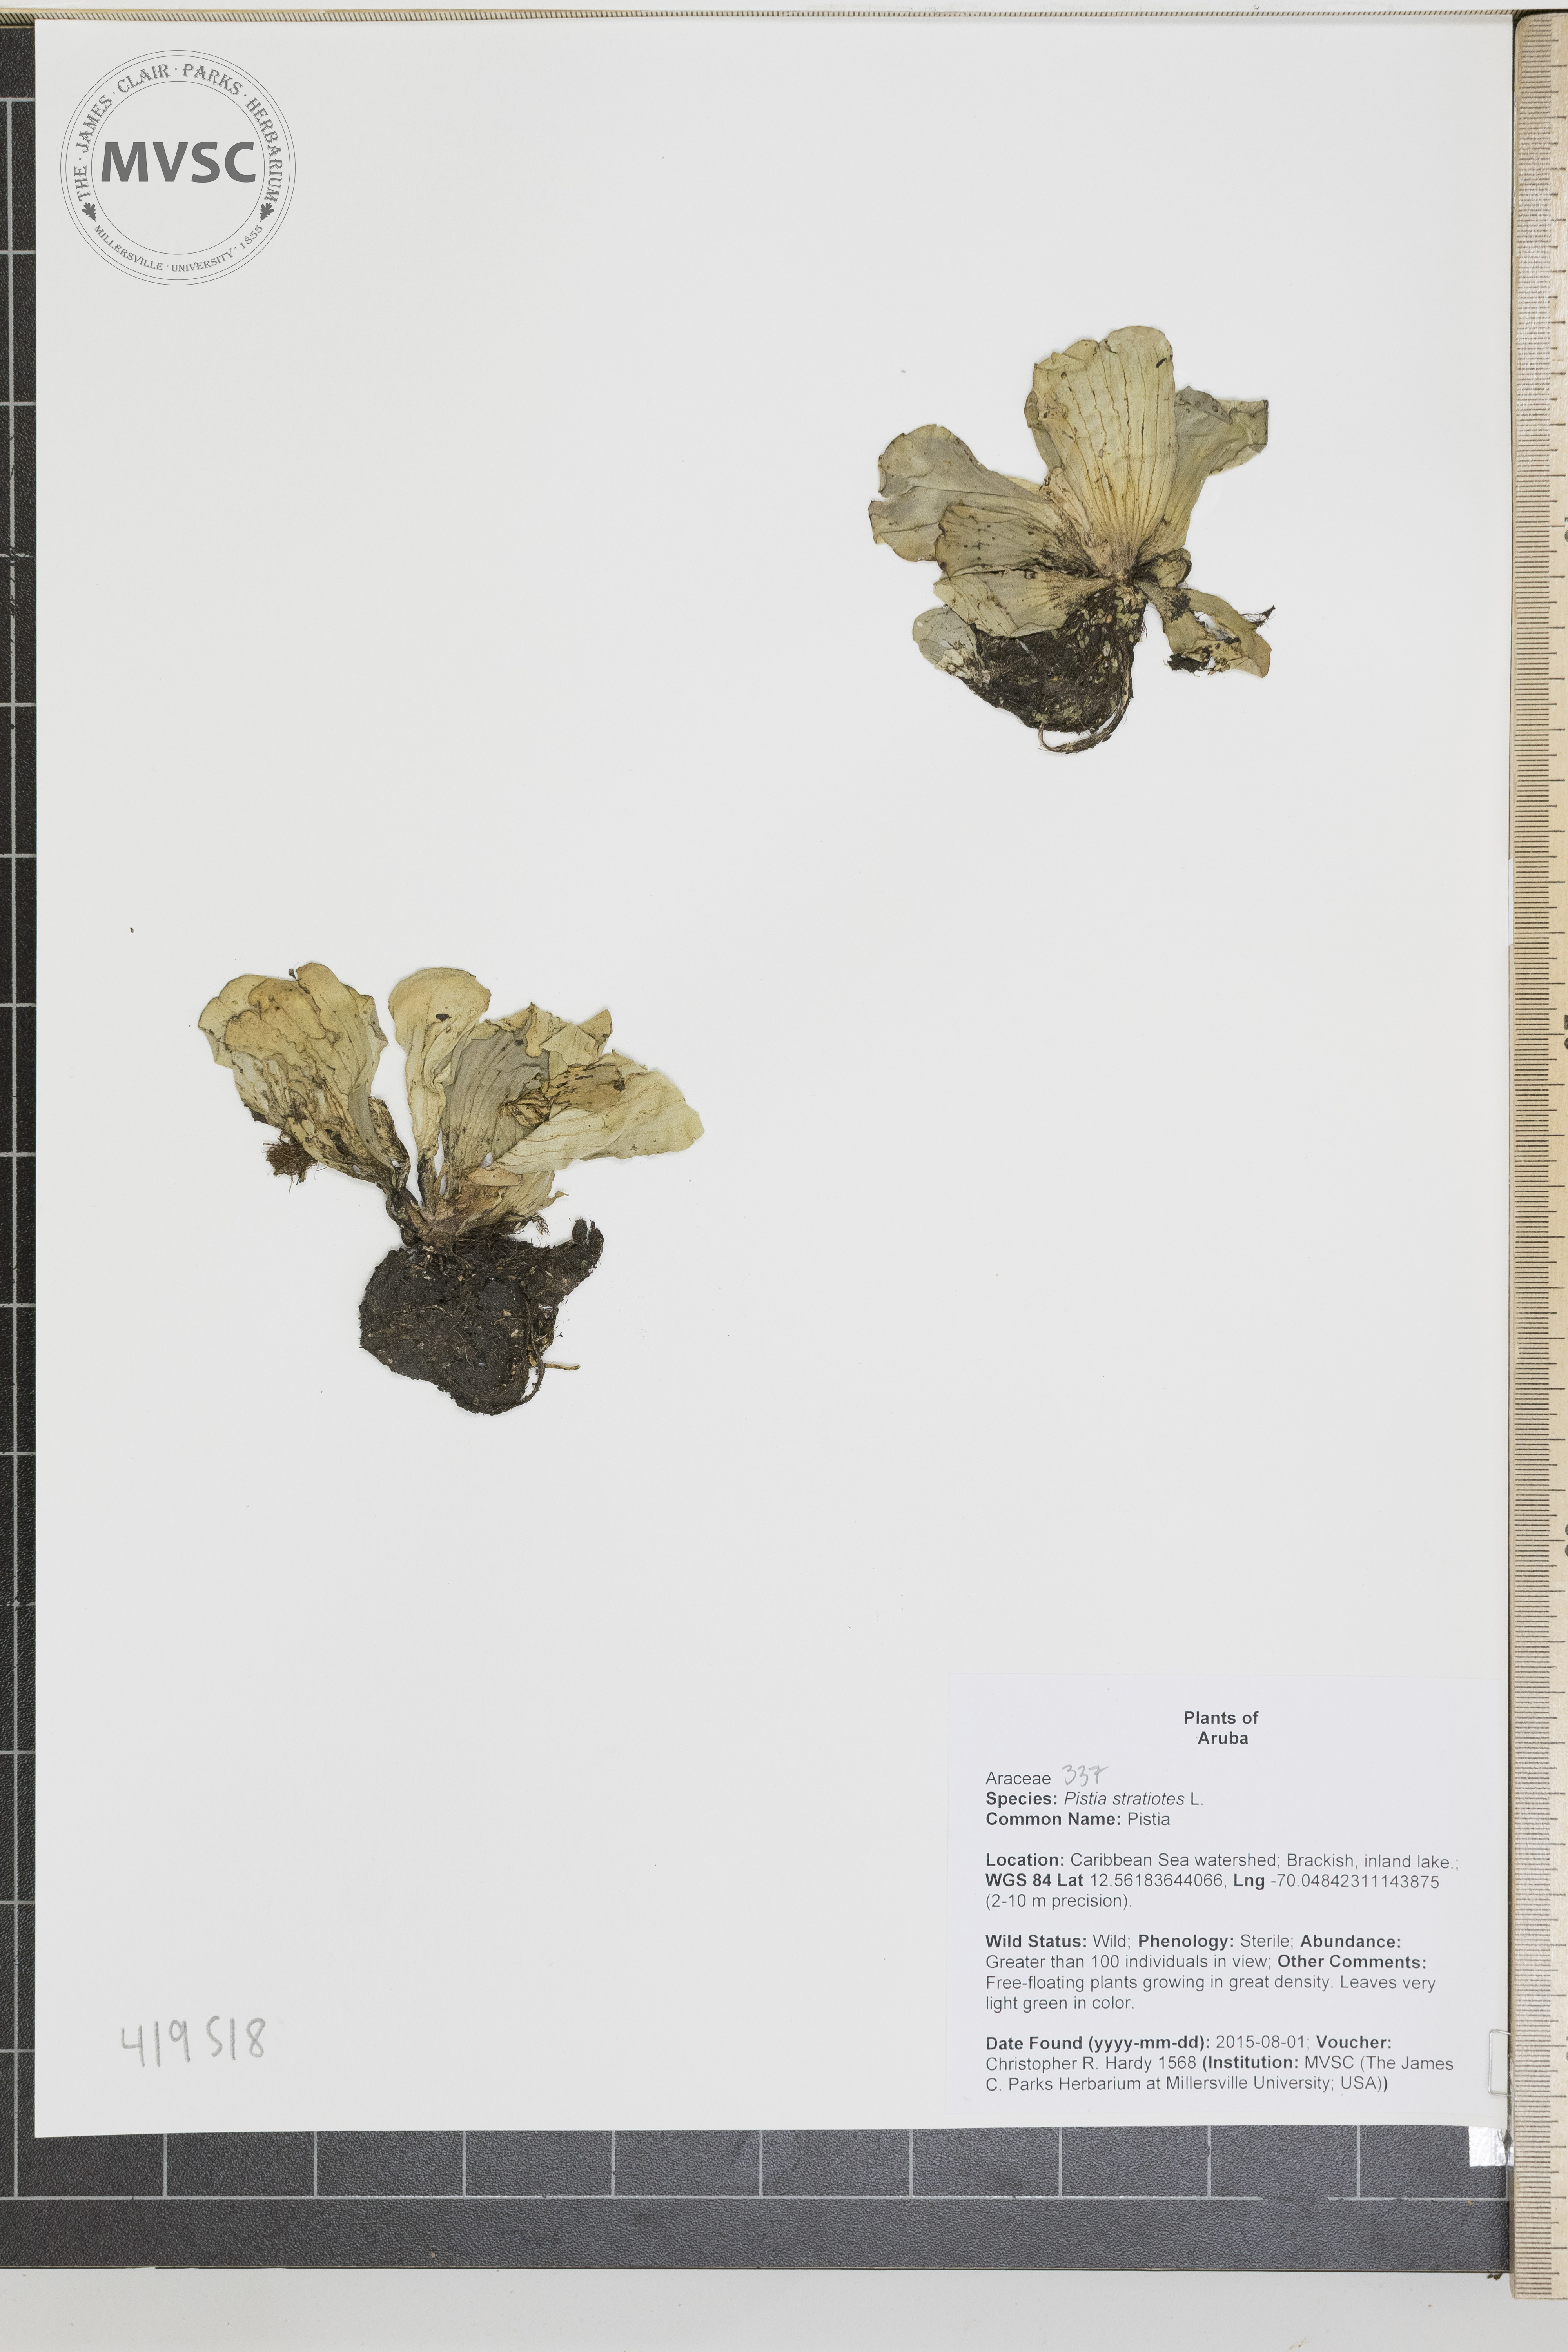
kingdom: Plantae
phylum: Tracheophyta
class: Liliopsida
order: Alismatales
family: Araceae
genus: Pistia
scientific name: Pistia stratiotes
